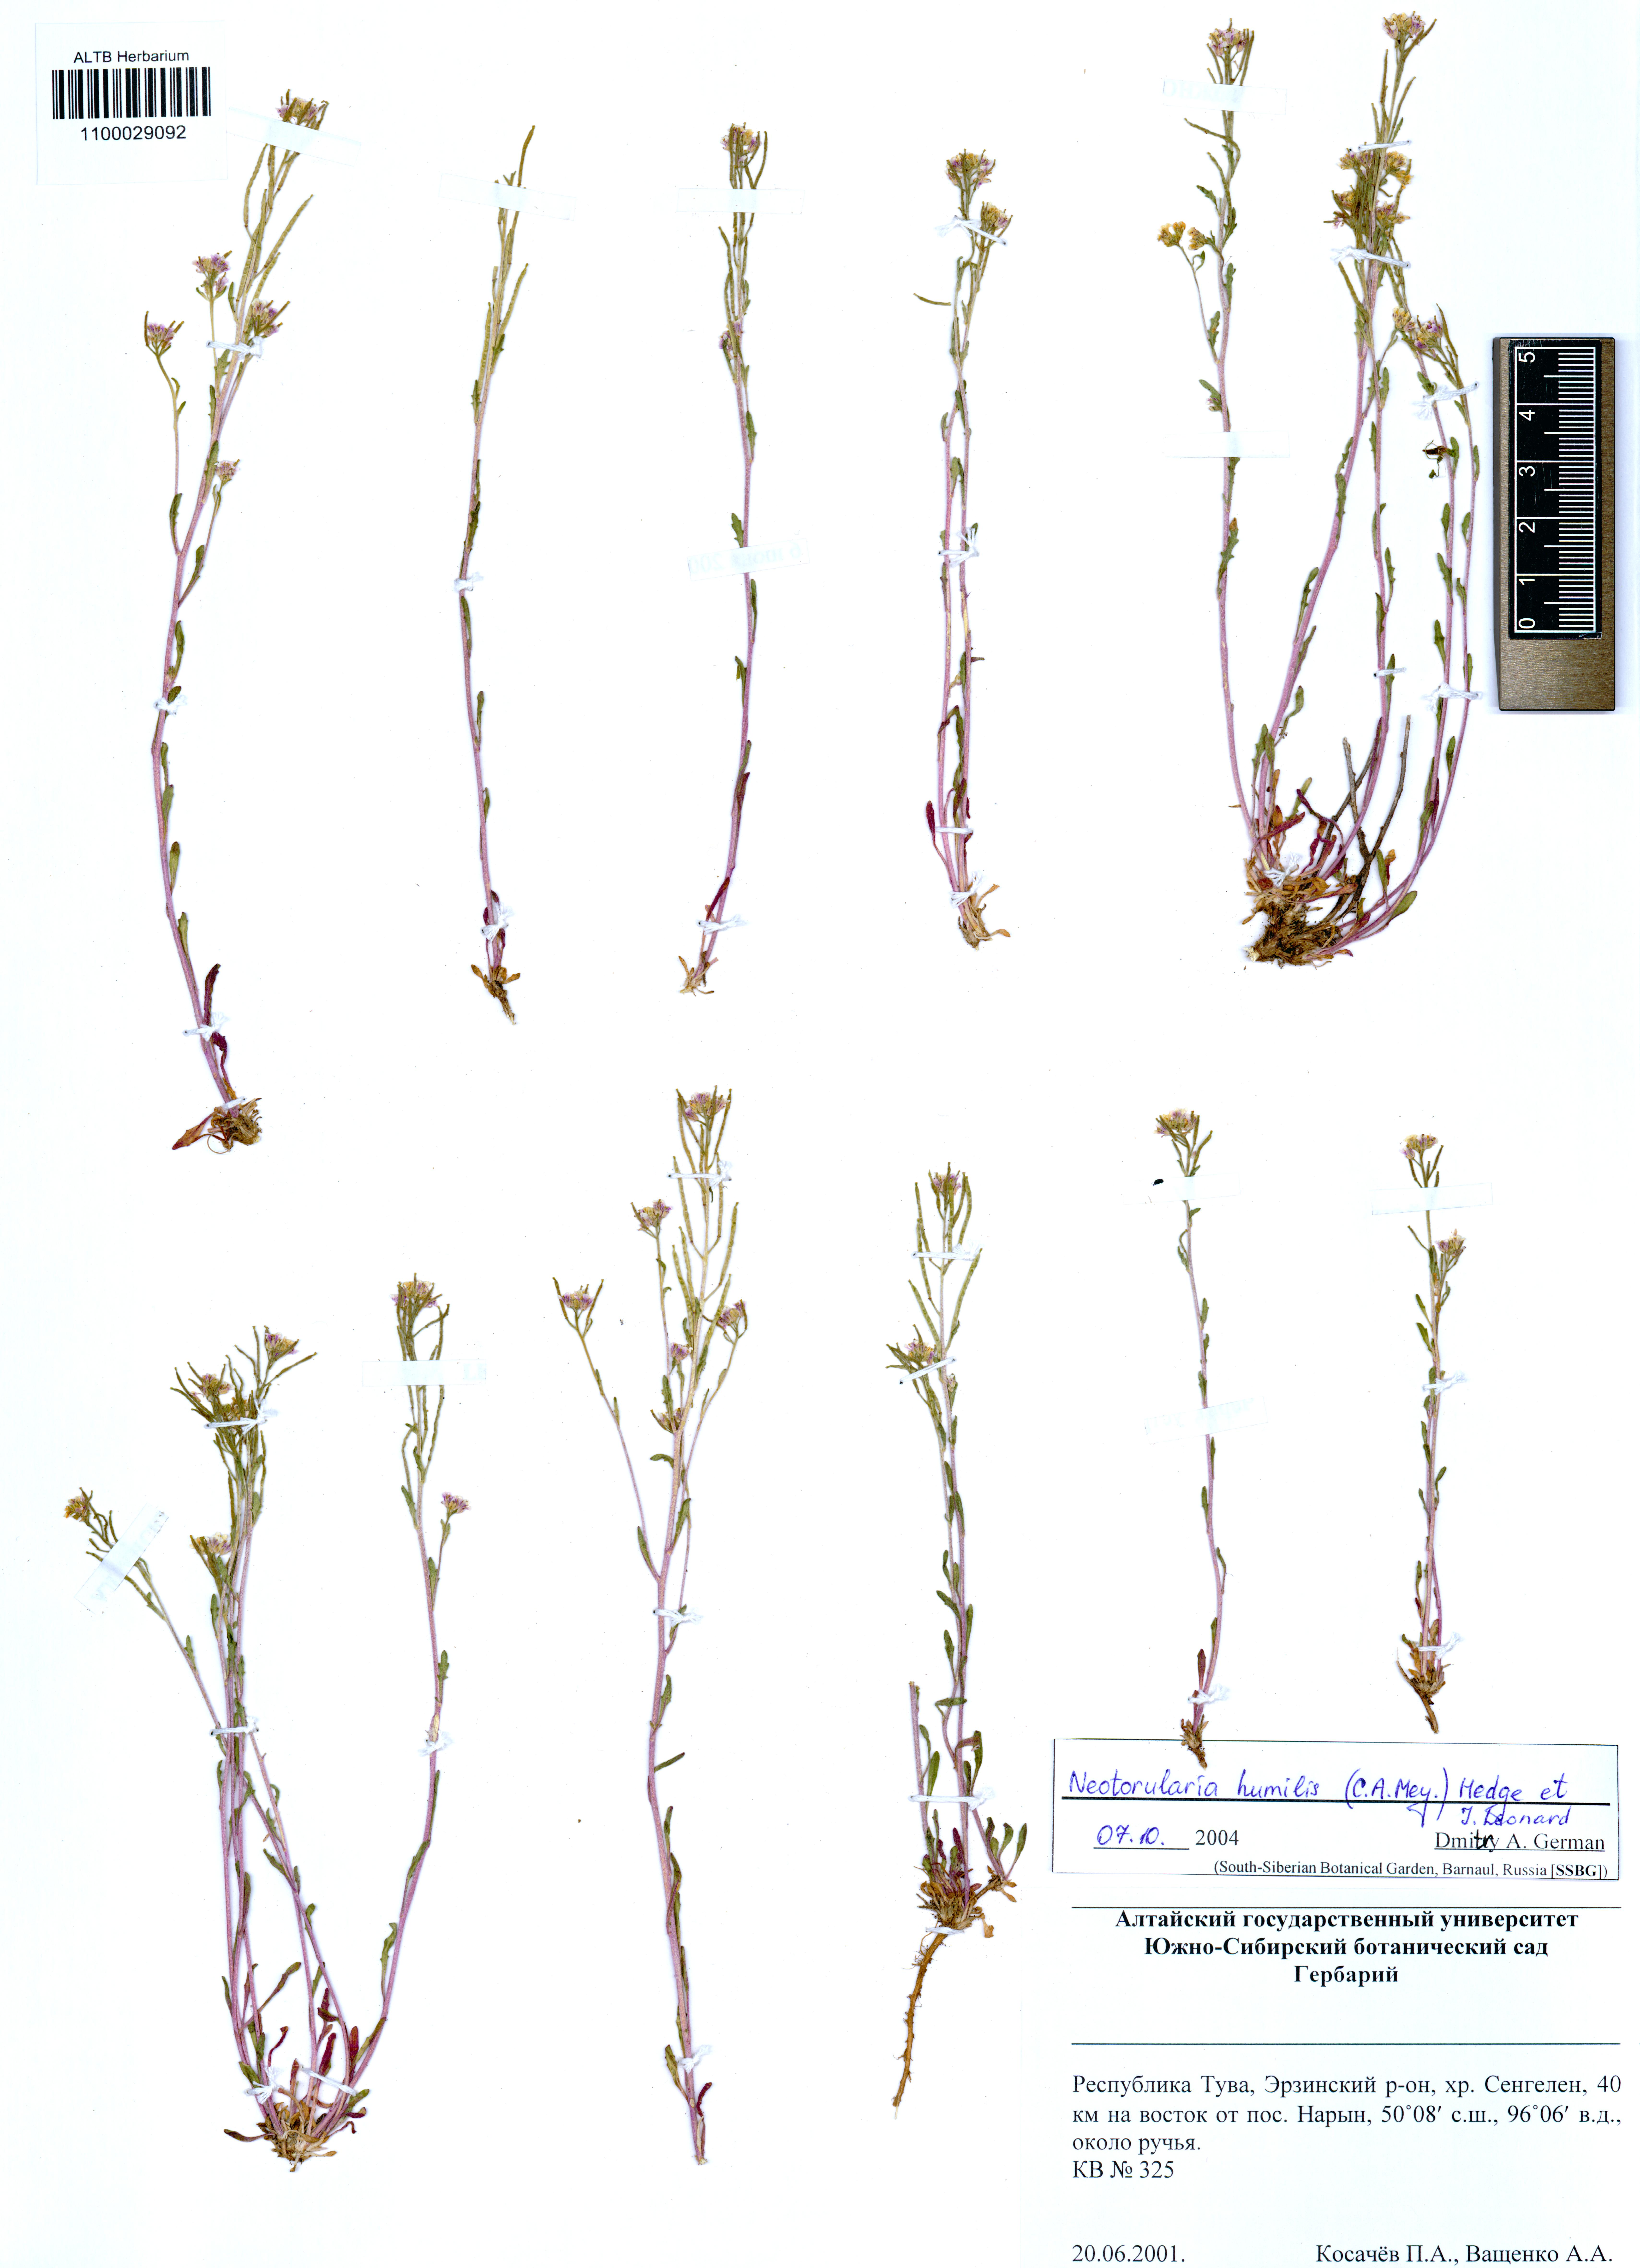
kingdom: Plantae
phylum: Tracheophyta
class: Magnoliopsida
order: Brassicales
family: Brassicaceae
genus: Braya
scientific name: Braya humilis
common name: Alpine northern rockcress
